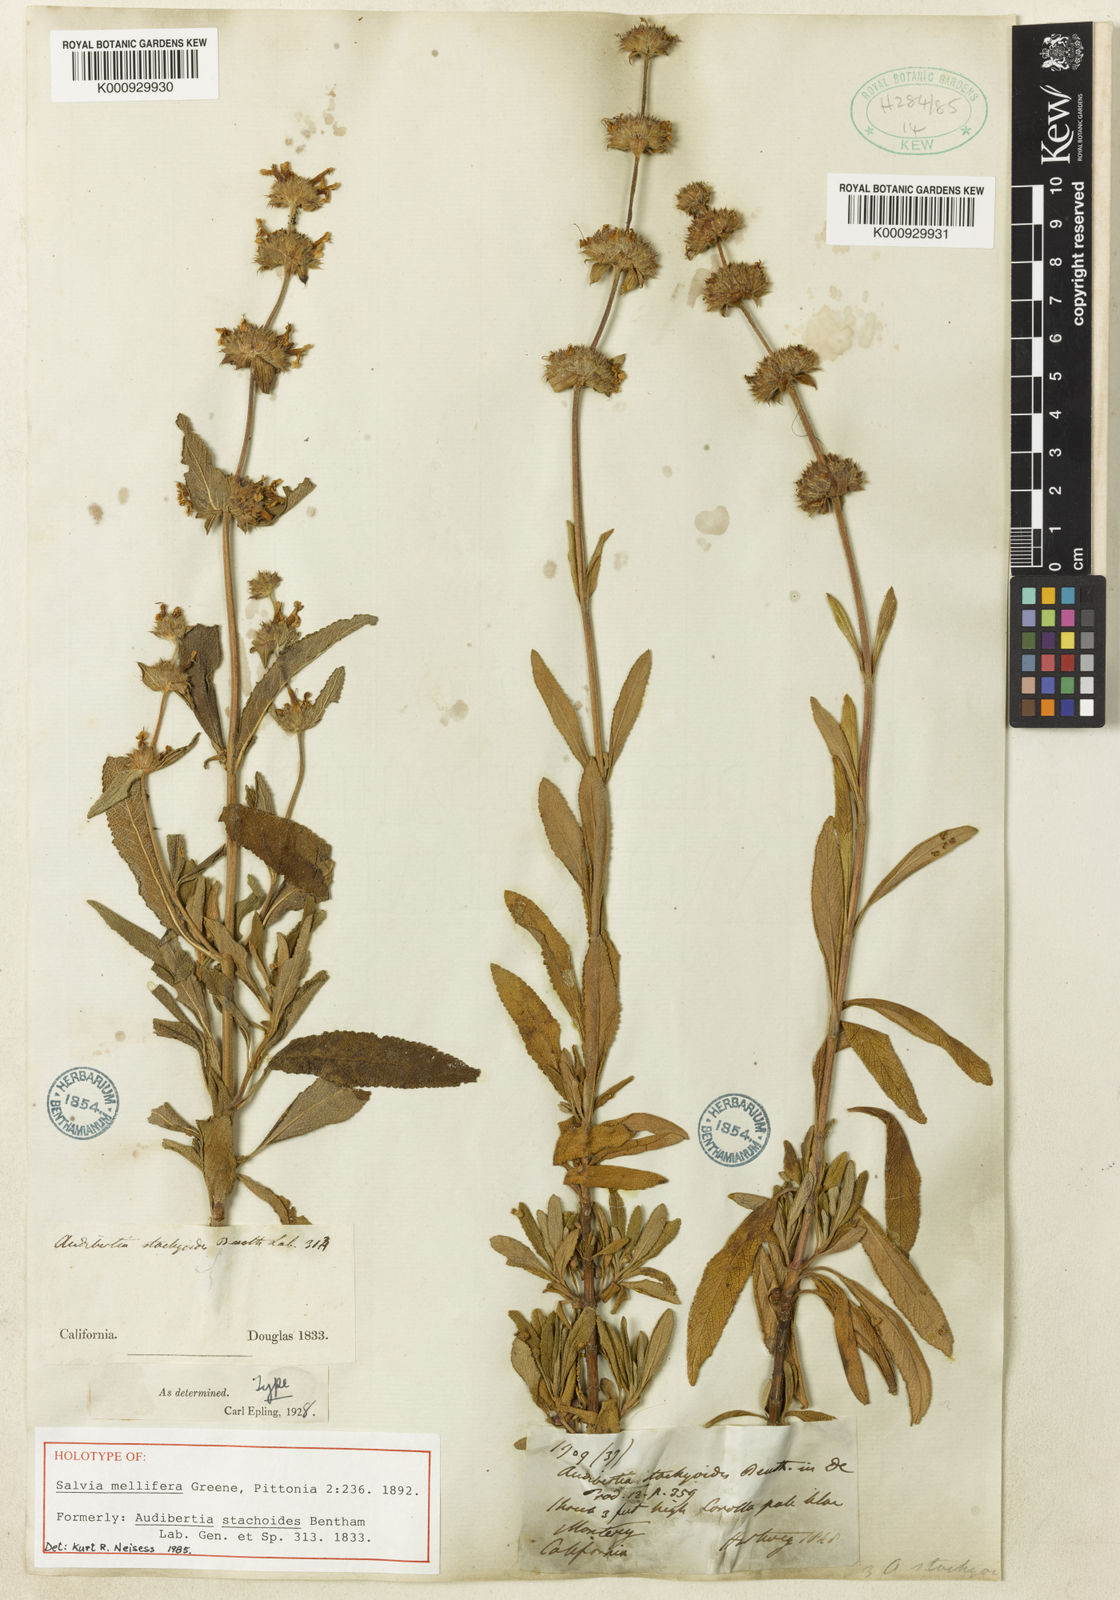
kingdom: Plantae
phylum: Tracheophyta
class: Magnoliopsida
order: Lamiales
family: Lamiaceae
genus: Salvia
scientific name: Salvia mellifera
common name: Black sage
